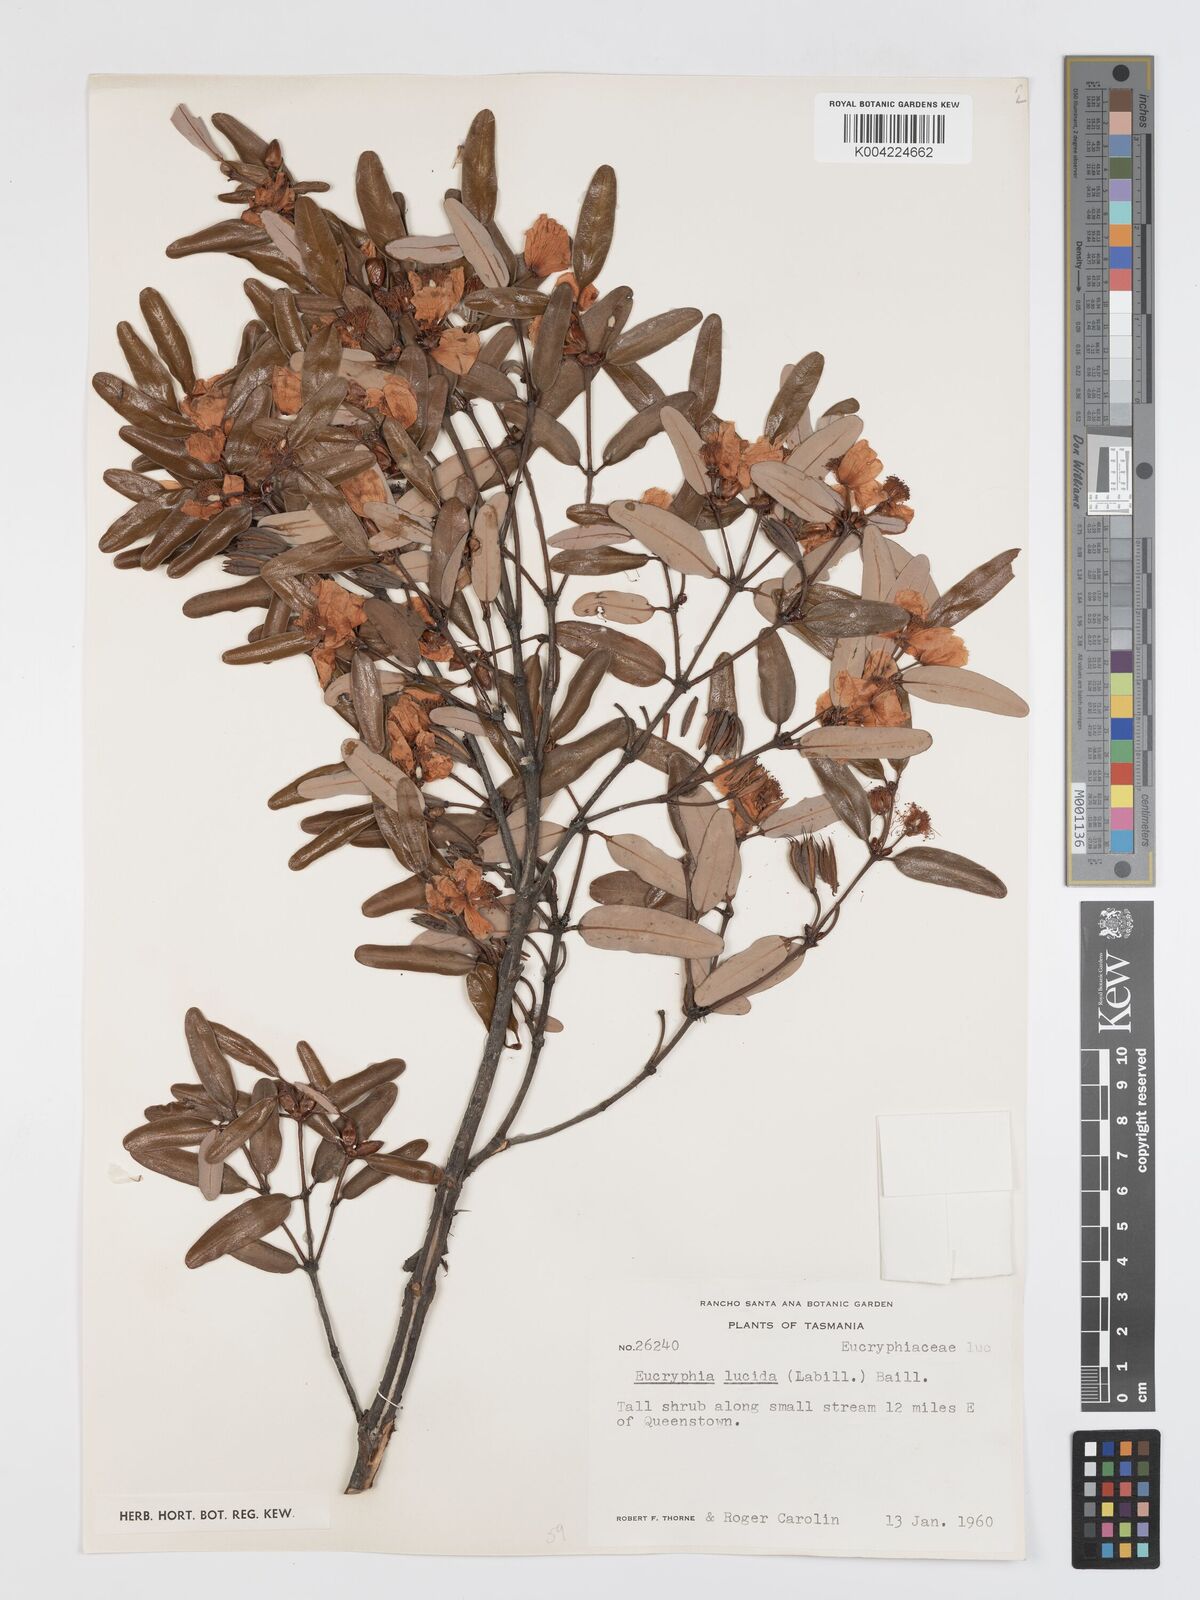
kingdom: Plantae
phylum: Tracheophyta
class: Magnoliopsida
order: Oxalidales
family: Cunoniaceae
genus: Eucryphia
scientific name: Eucryphia lucida
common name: Leatherwood
